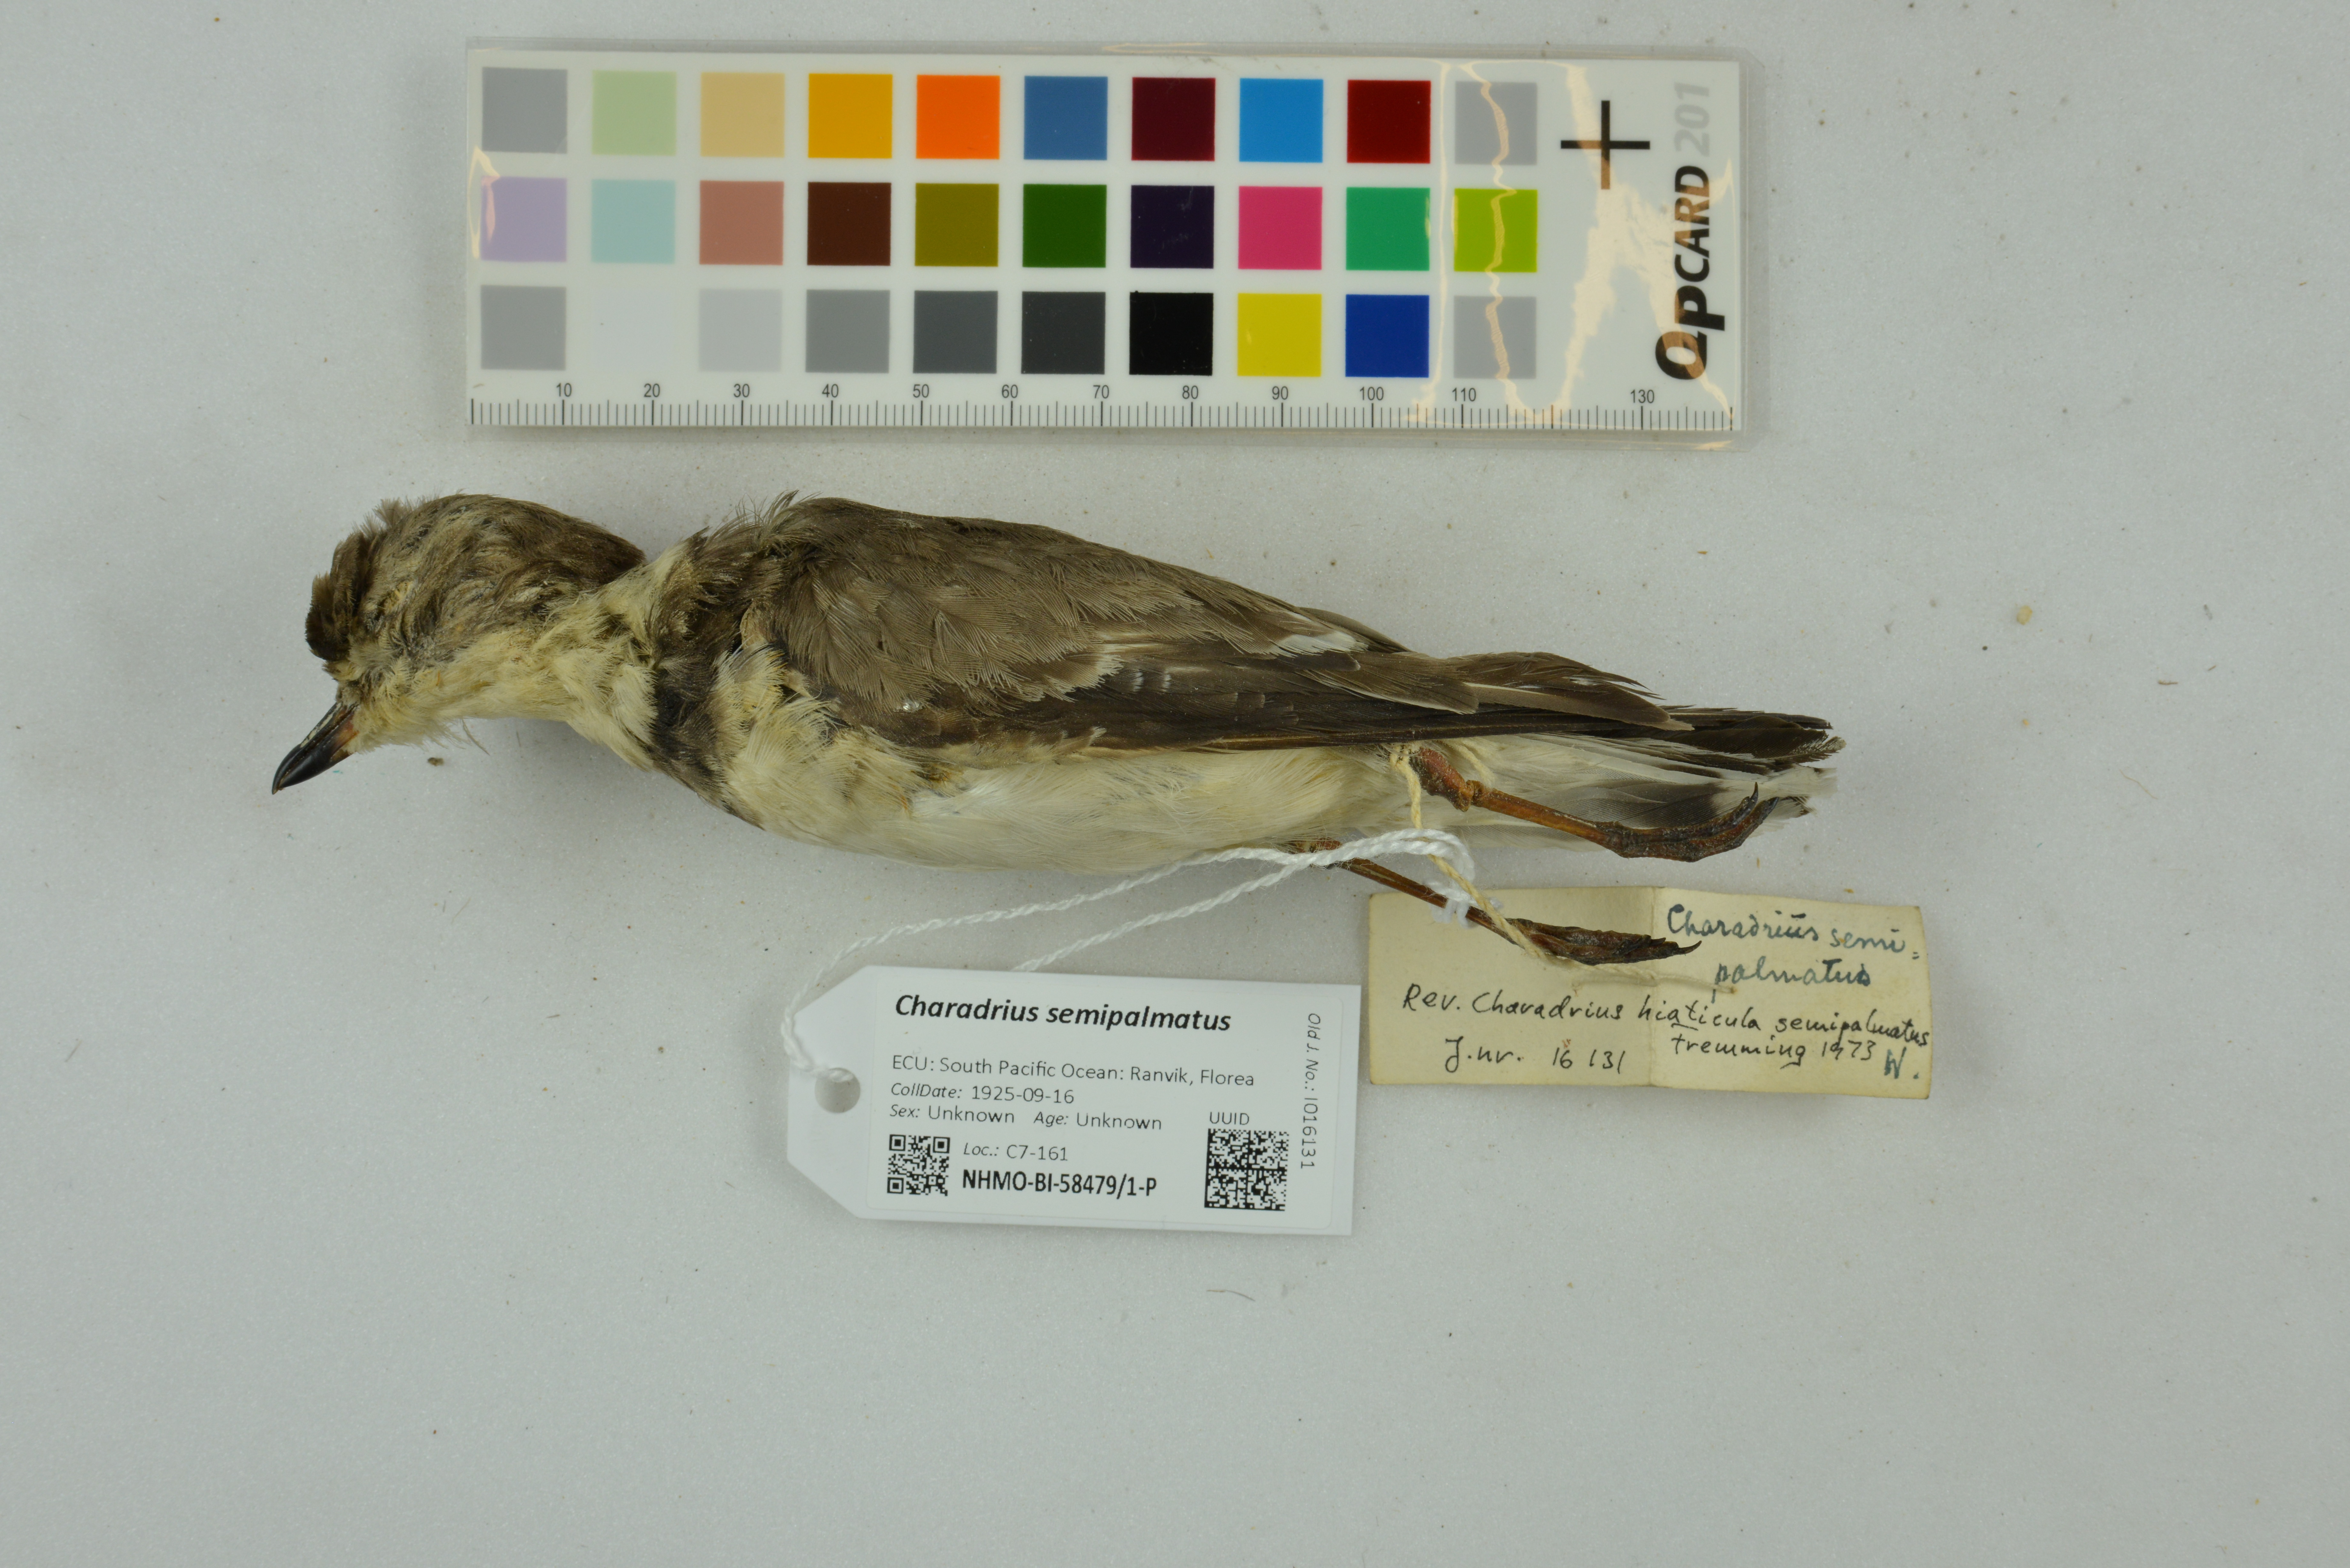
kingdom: Animalia
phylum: Chordata
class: Aves
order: Charadriiformes
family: Charadriidae
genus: Charadrius
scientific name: Charadrius semipalmatus
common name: Semipalmated plover
